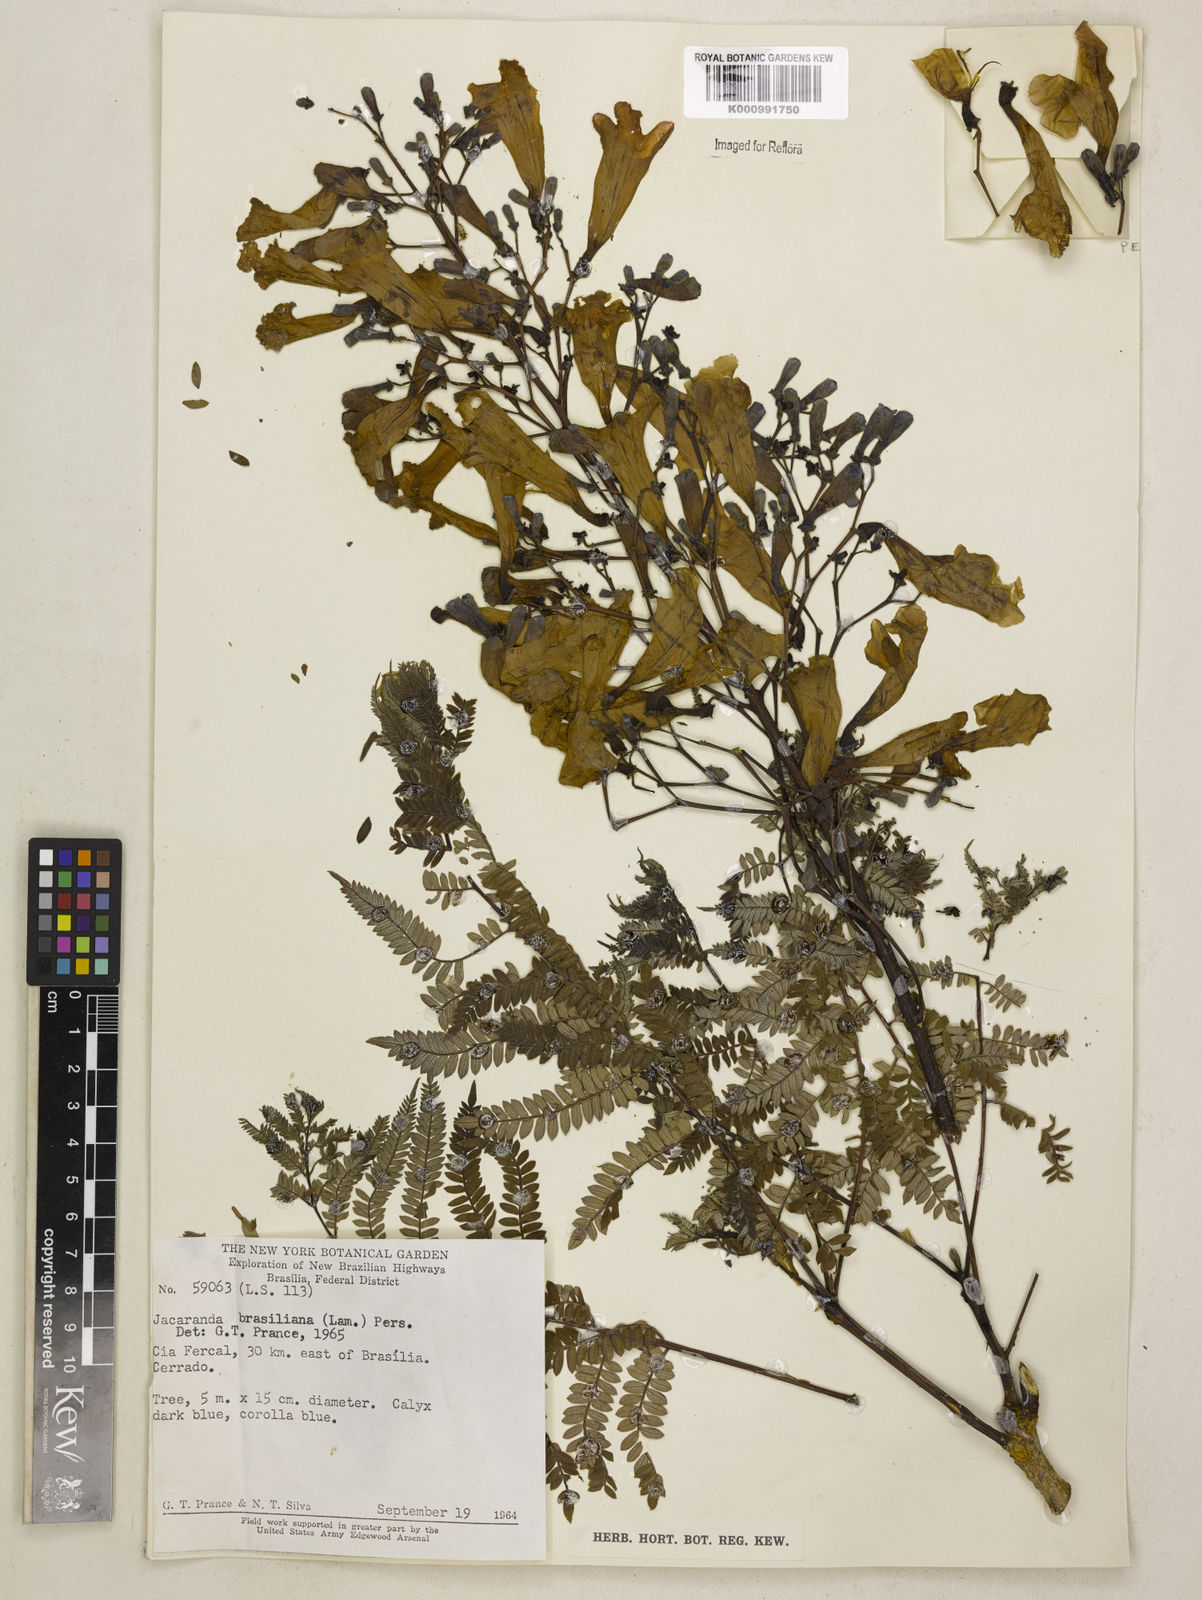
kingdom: Plantae
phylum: Tracheophyta
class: Magnoliopsida
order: Lamiales
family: Bignoniaceae
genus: Jacaranda
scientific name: Jacaranda brasiliana
